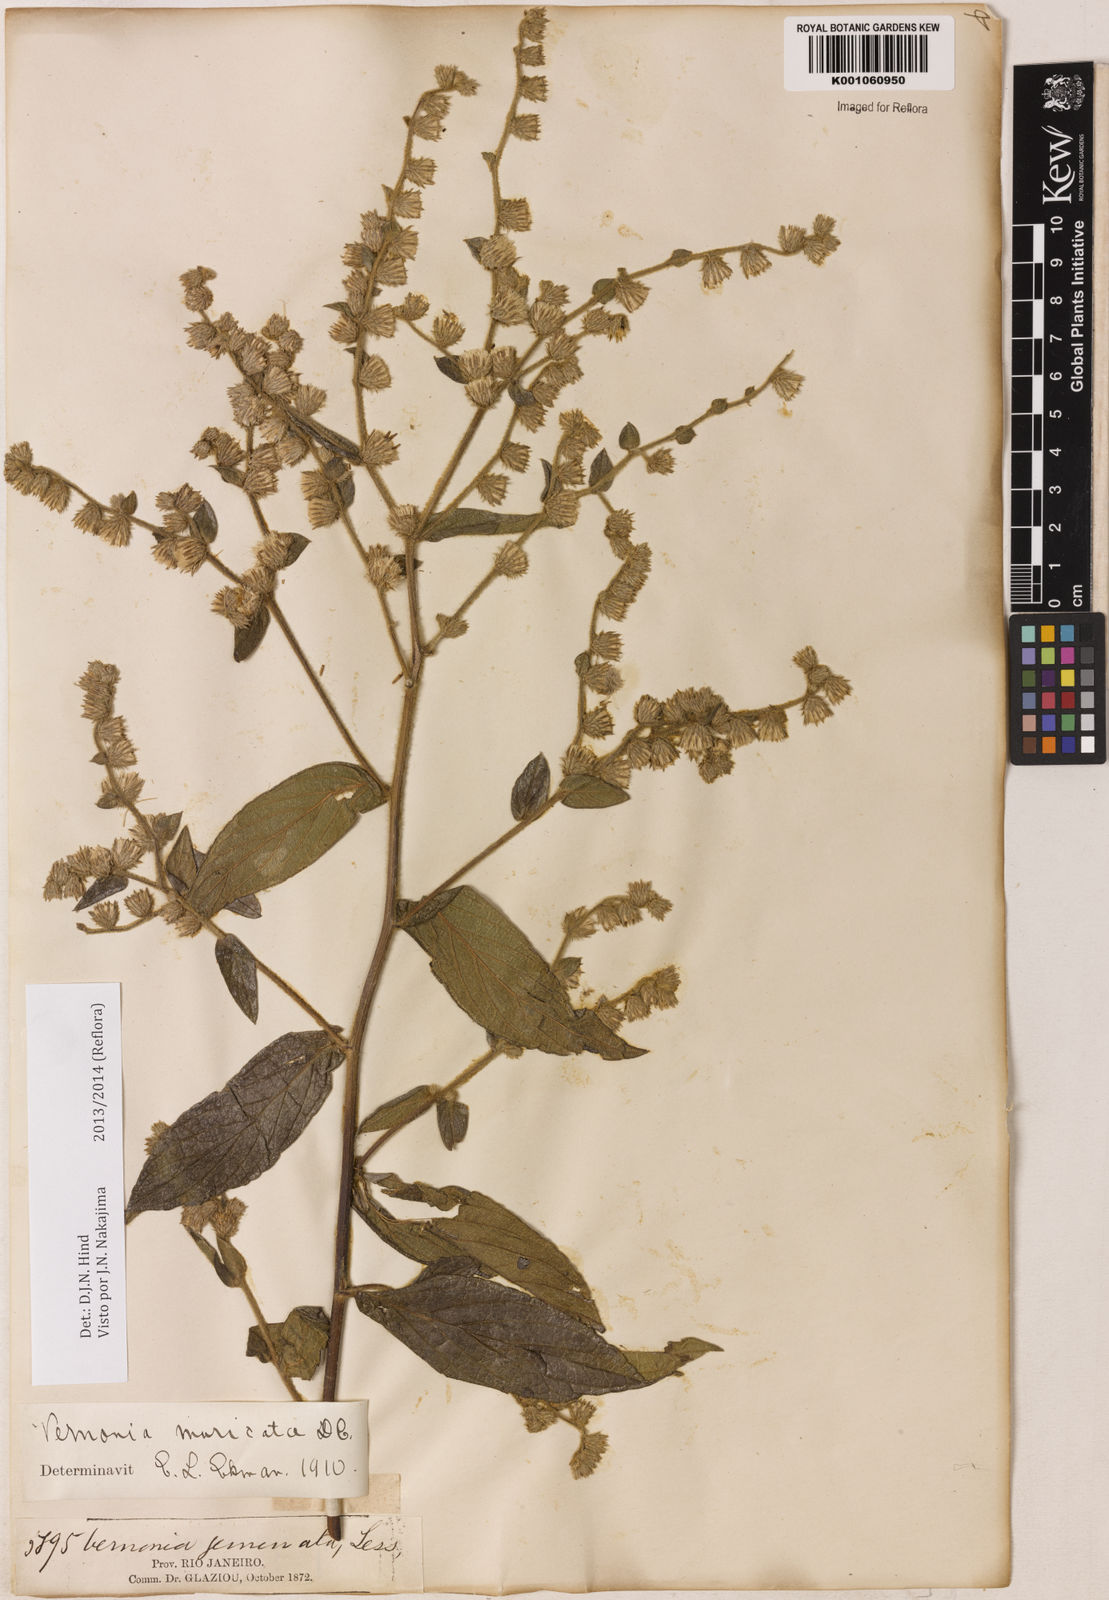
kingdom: Plantae
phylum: Tracheophyta
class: Magnoliopsida
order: Asterales
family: Asteraceae
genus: Lepidaploa
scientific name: Lepidaploa muricata
